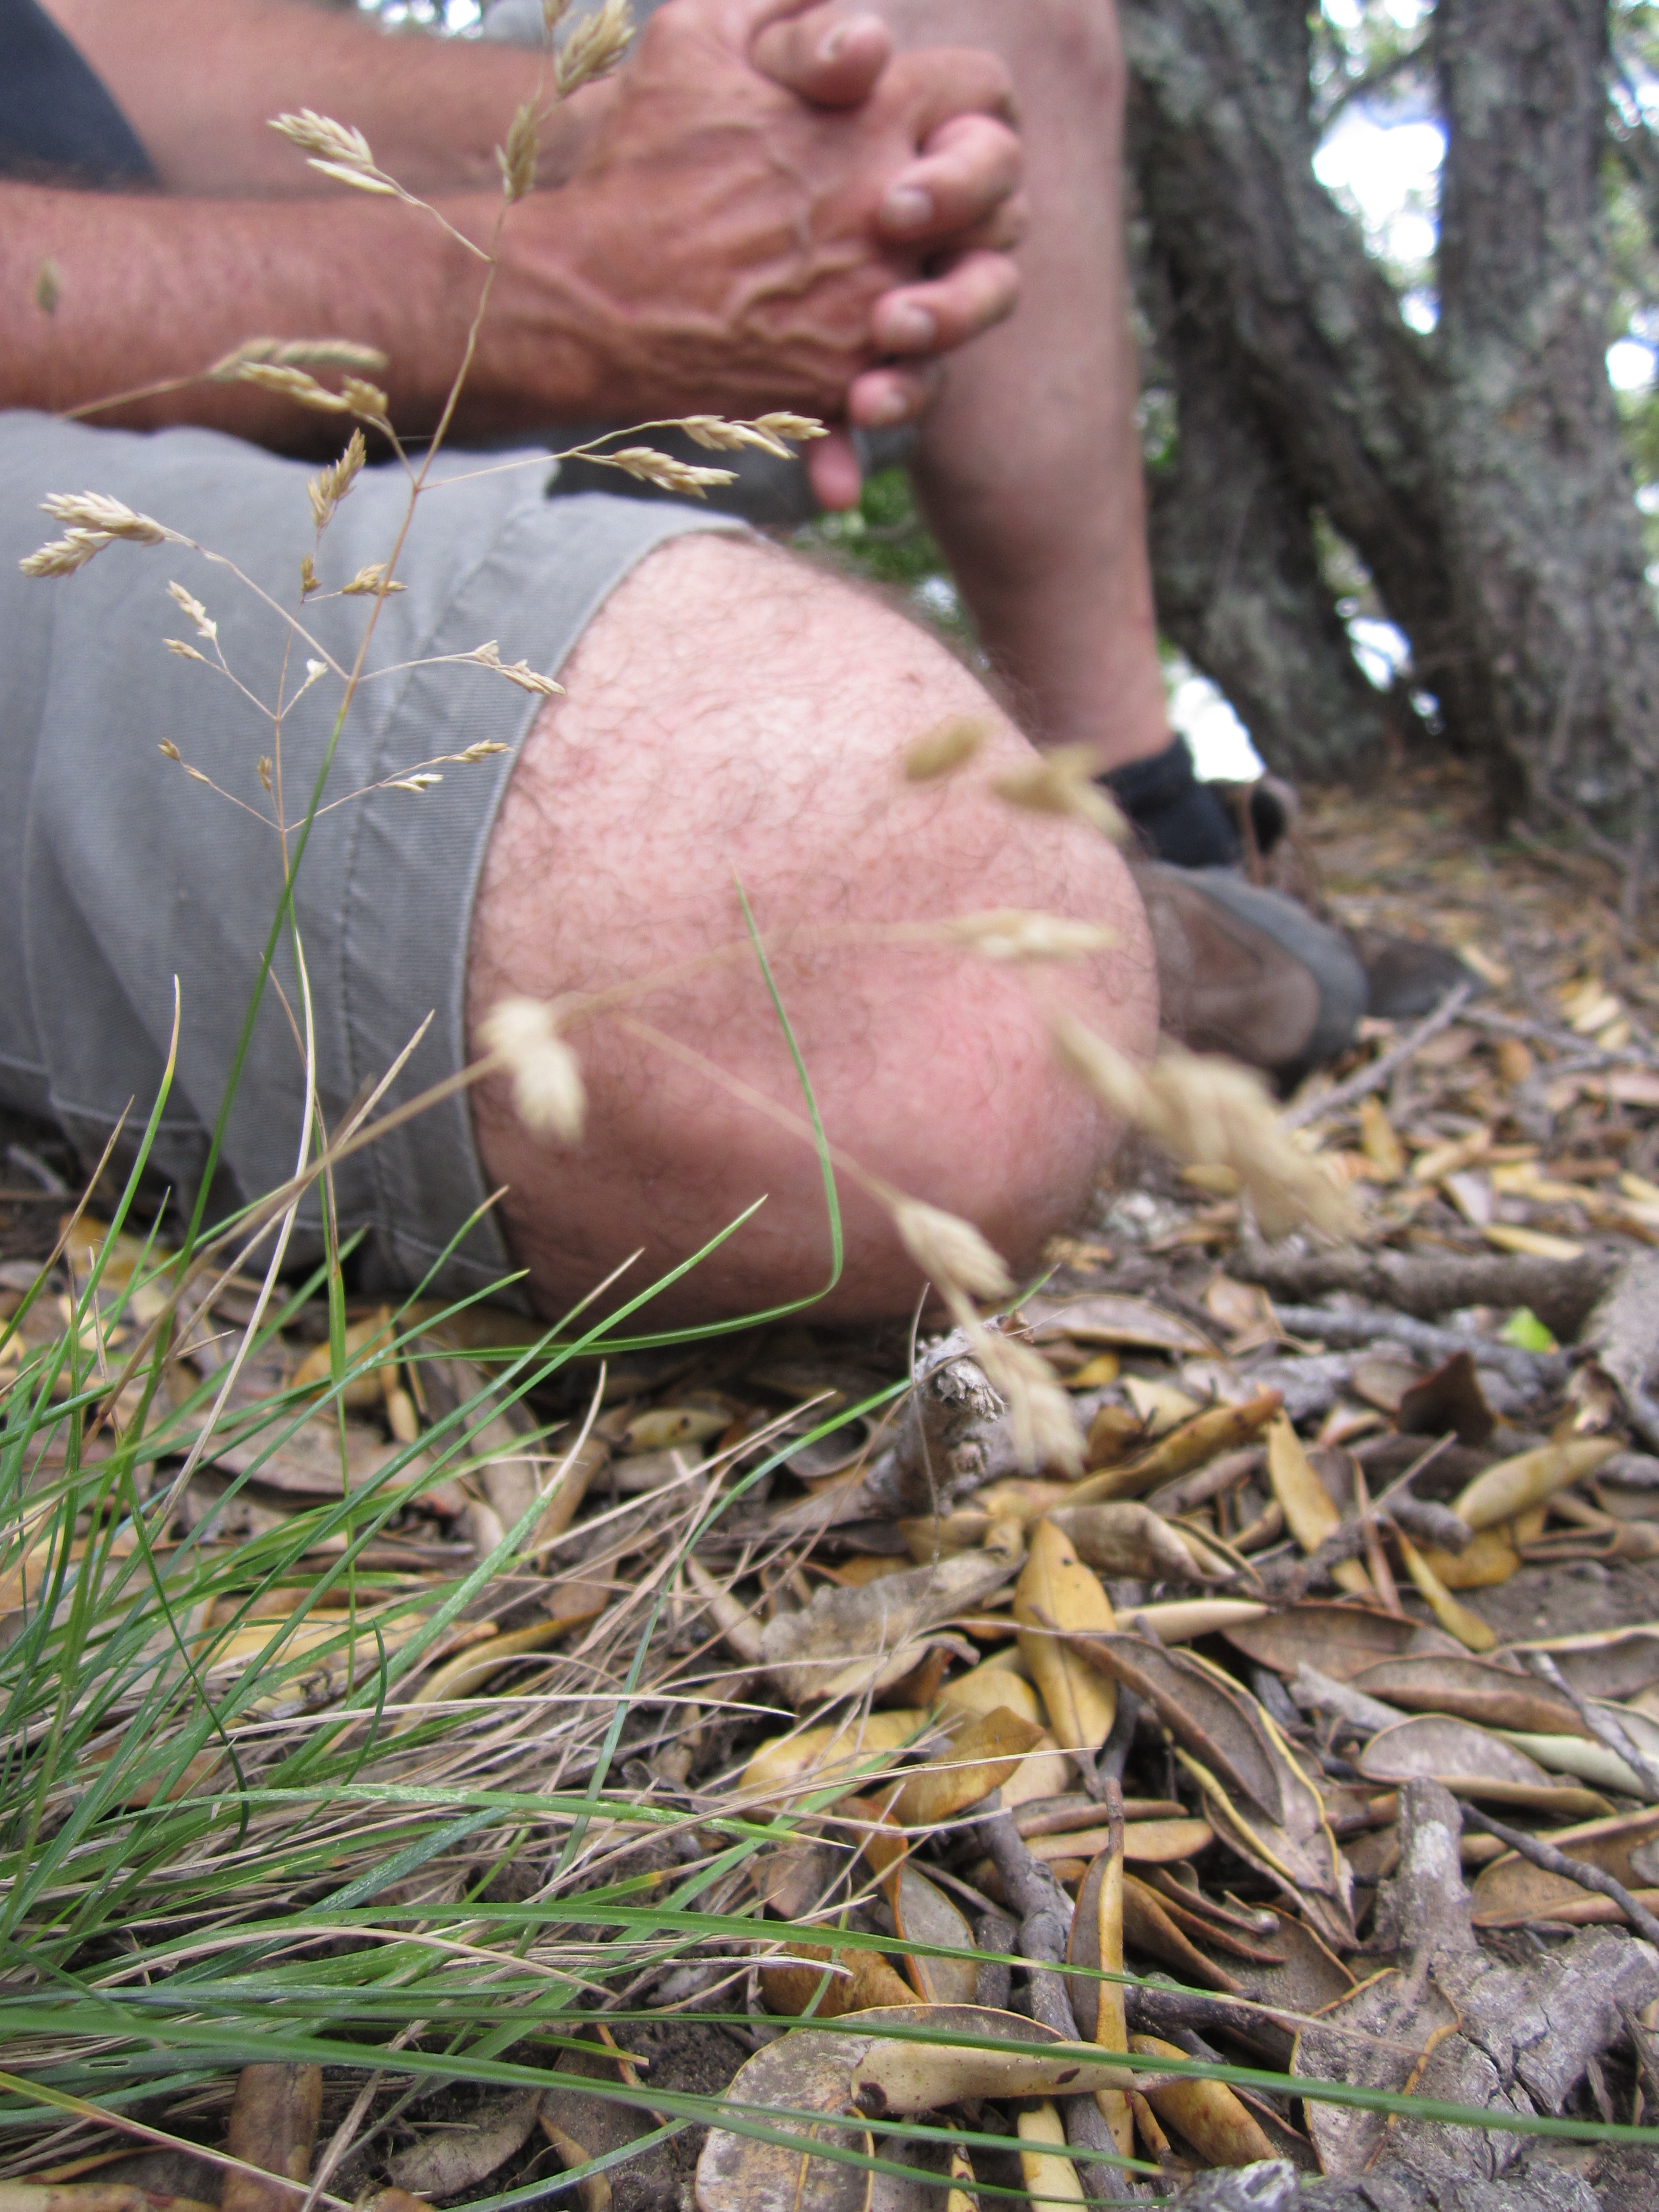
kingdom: Plantae
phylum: Tracheophyta
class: Liliopsida
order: Poales
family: Poaceae
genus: Poa
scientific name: Poa anceps
